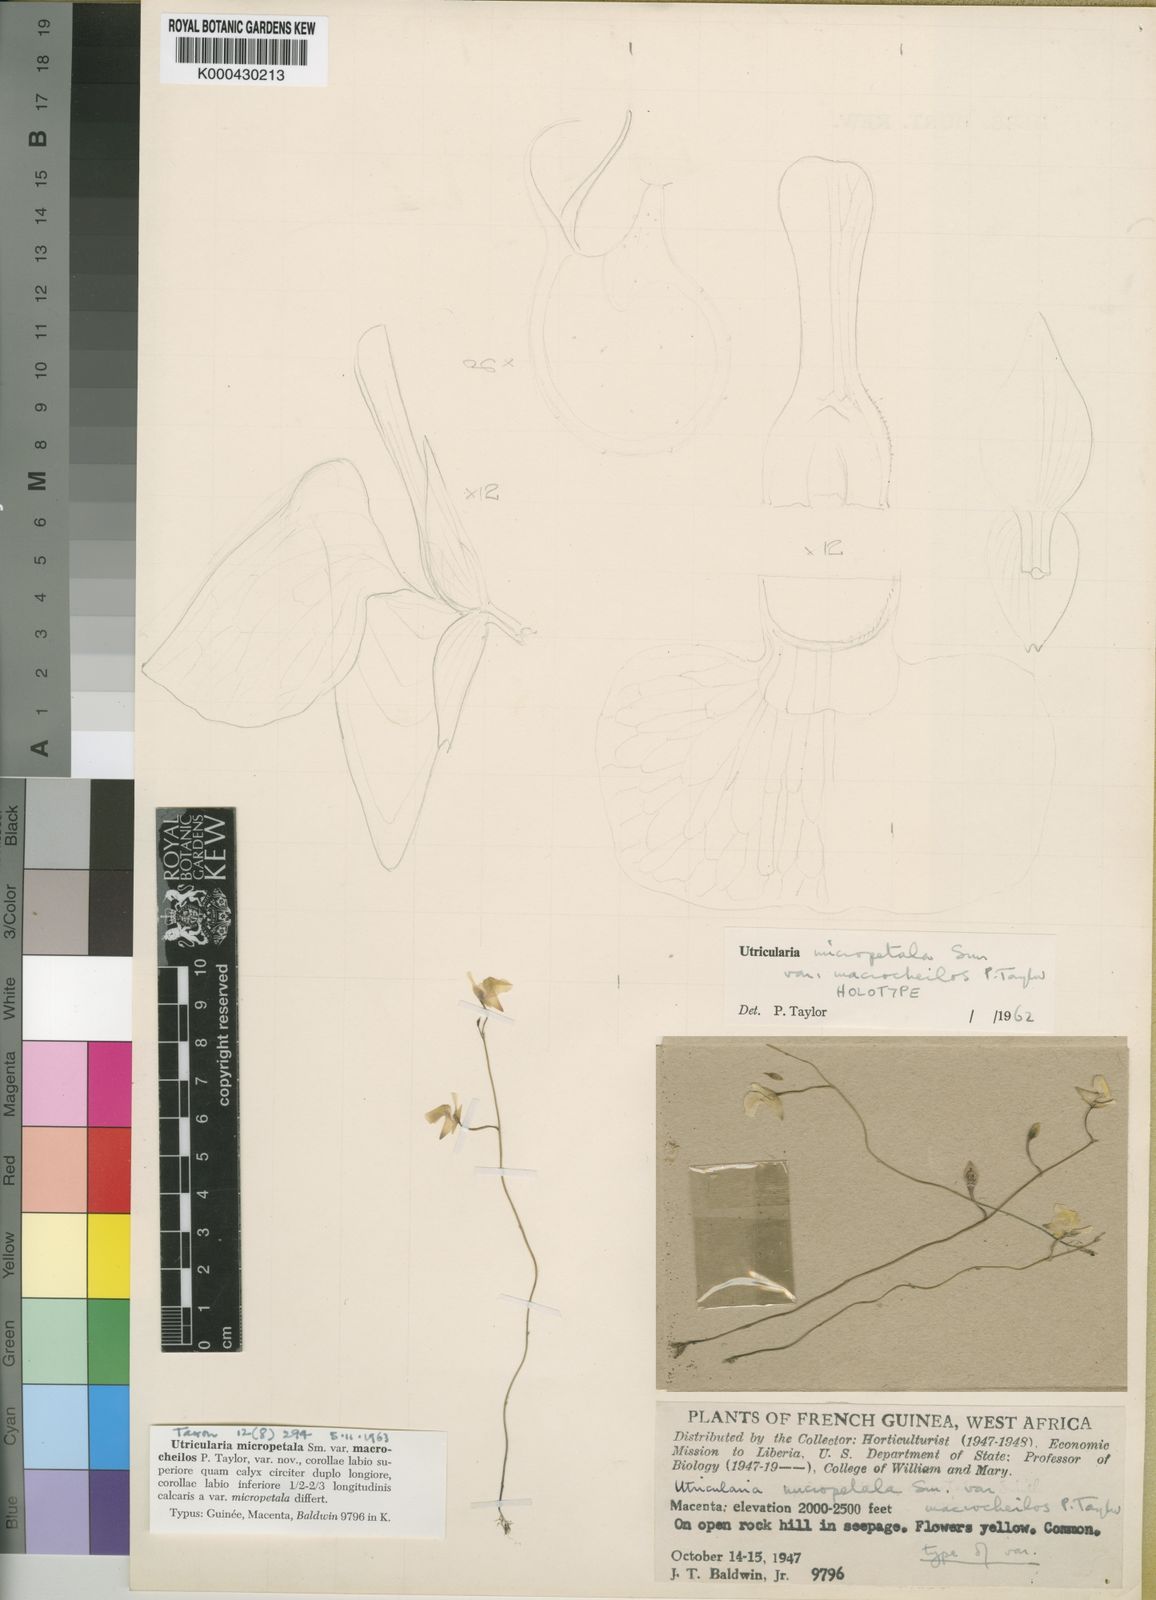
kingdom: Plantae
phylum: Tracheophyta
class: Magnoliopsida
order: Lamiales
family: Lentibulariaceae
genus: Utricularia
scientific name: Utricularia macrocheilos
